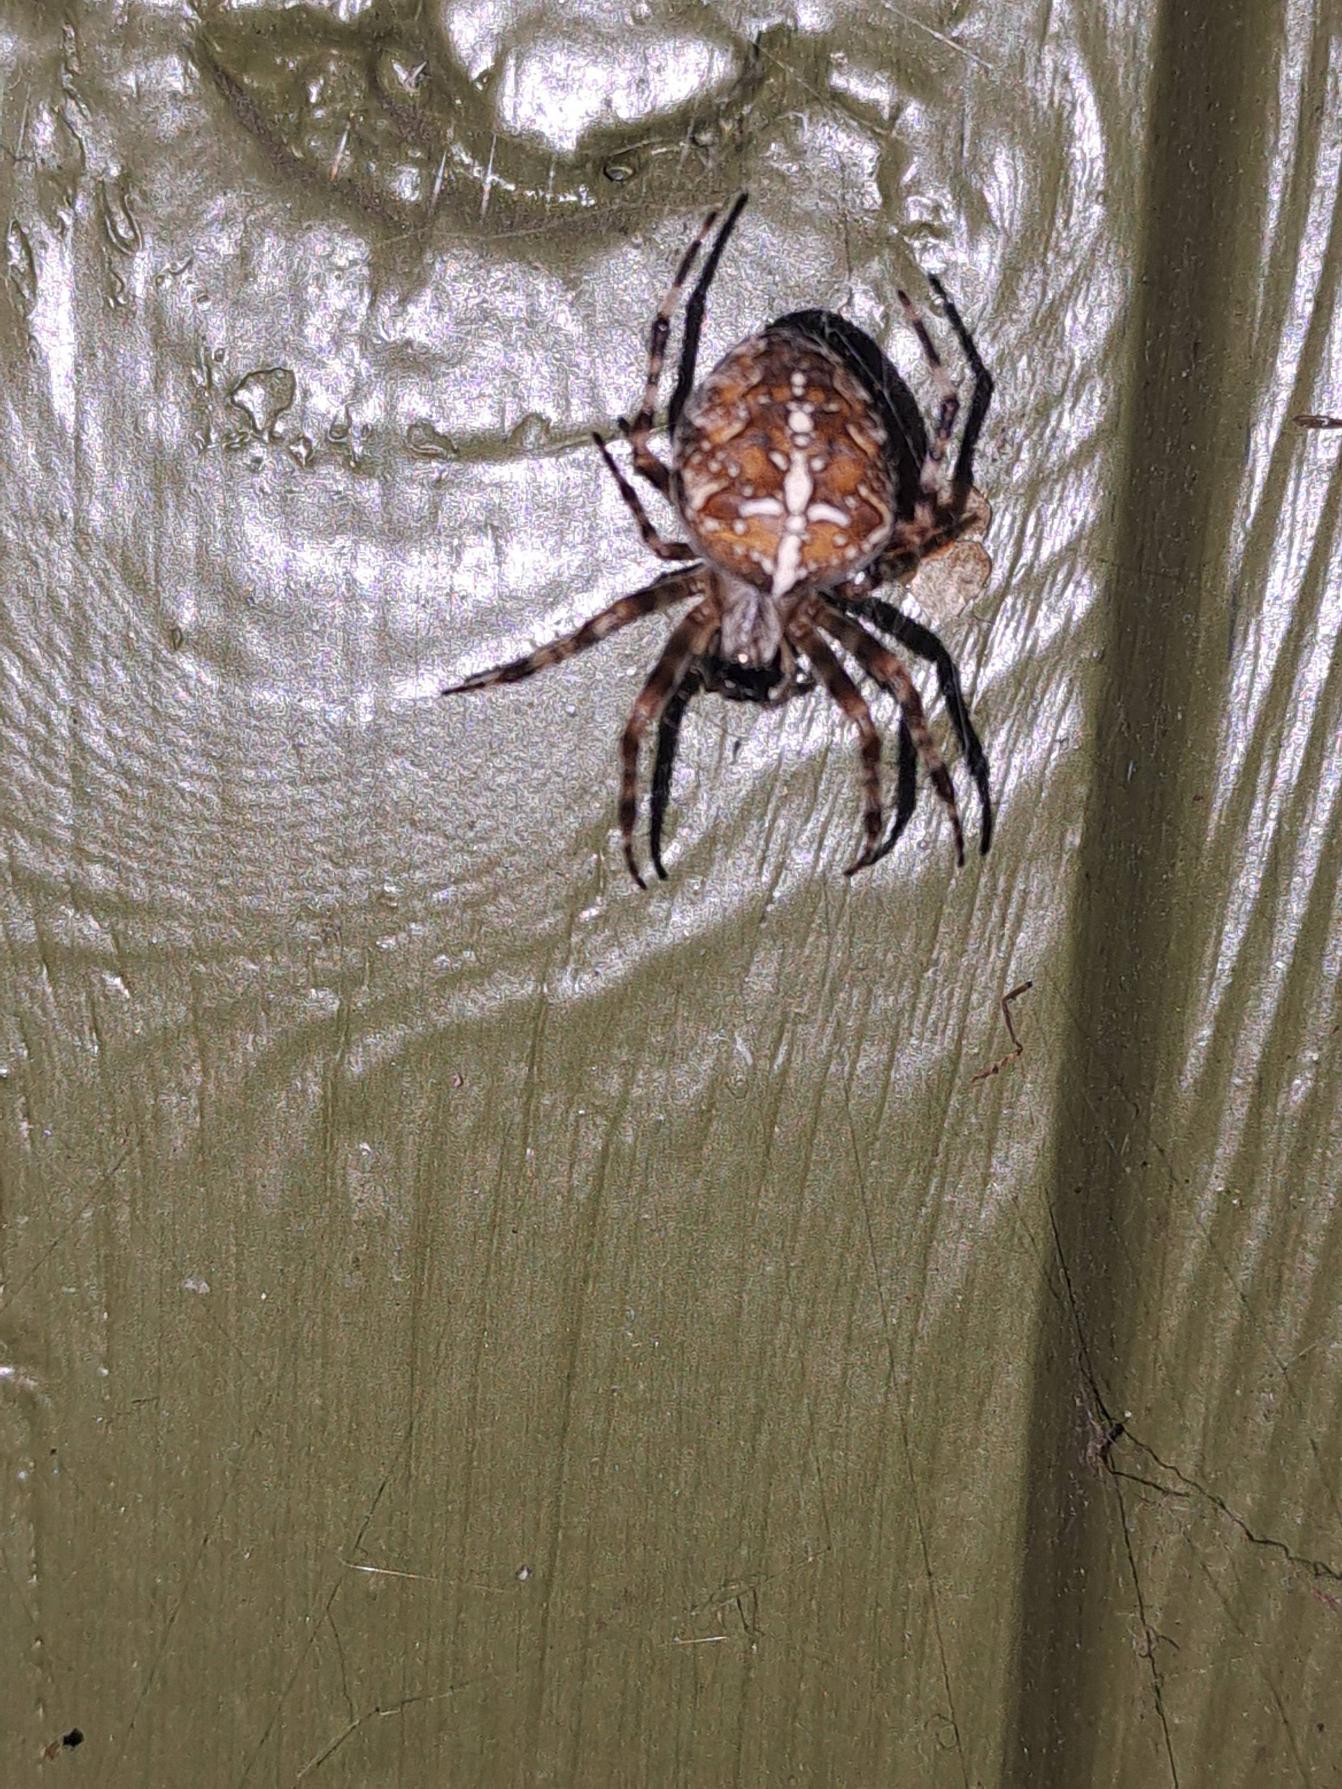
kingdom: Animalia
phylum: Arthropoda
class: Arachnida
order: Araneae
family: Araneidae
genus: Araneus
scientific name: Araneus diadematus
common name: Korsedderkop
